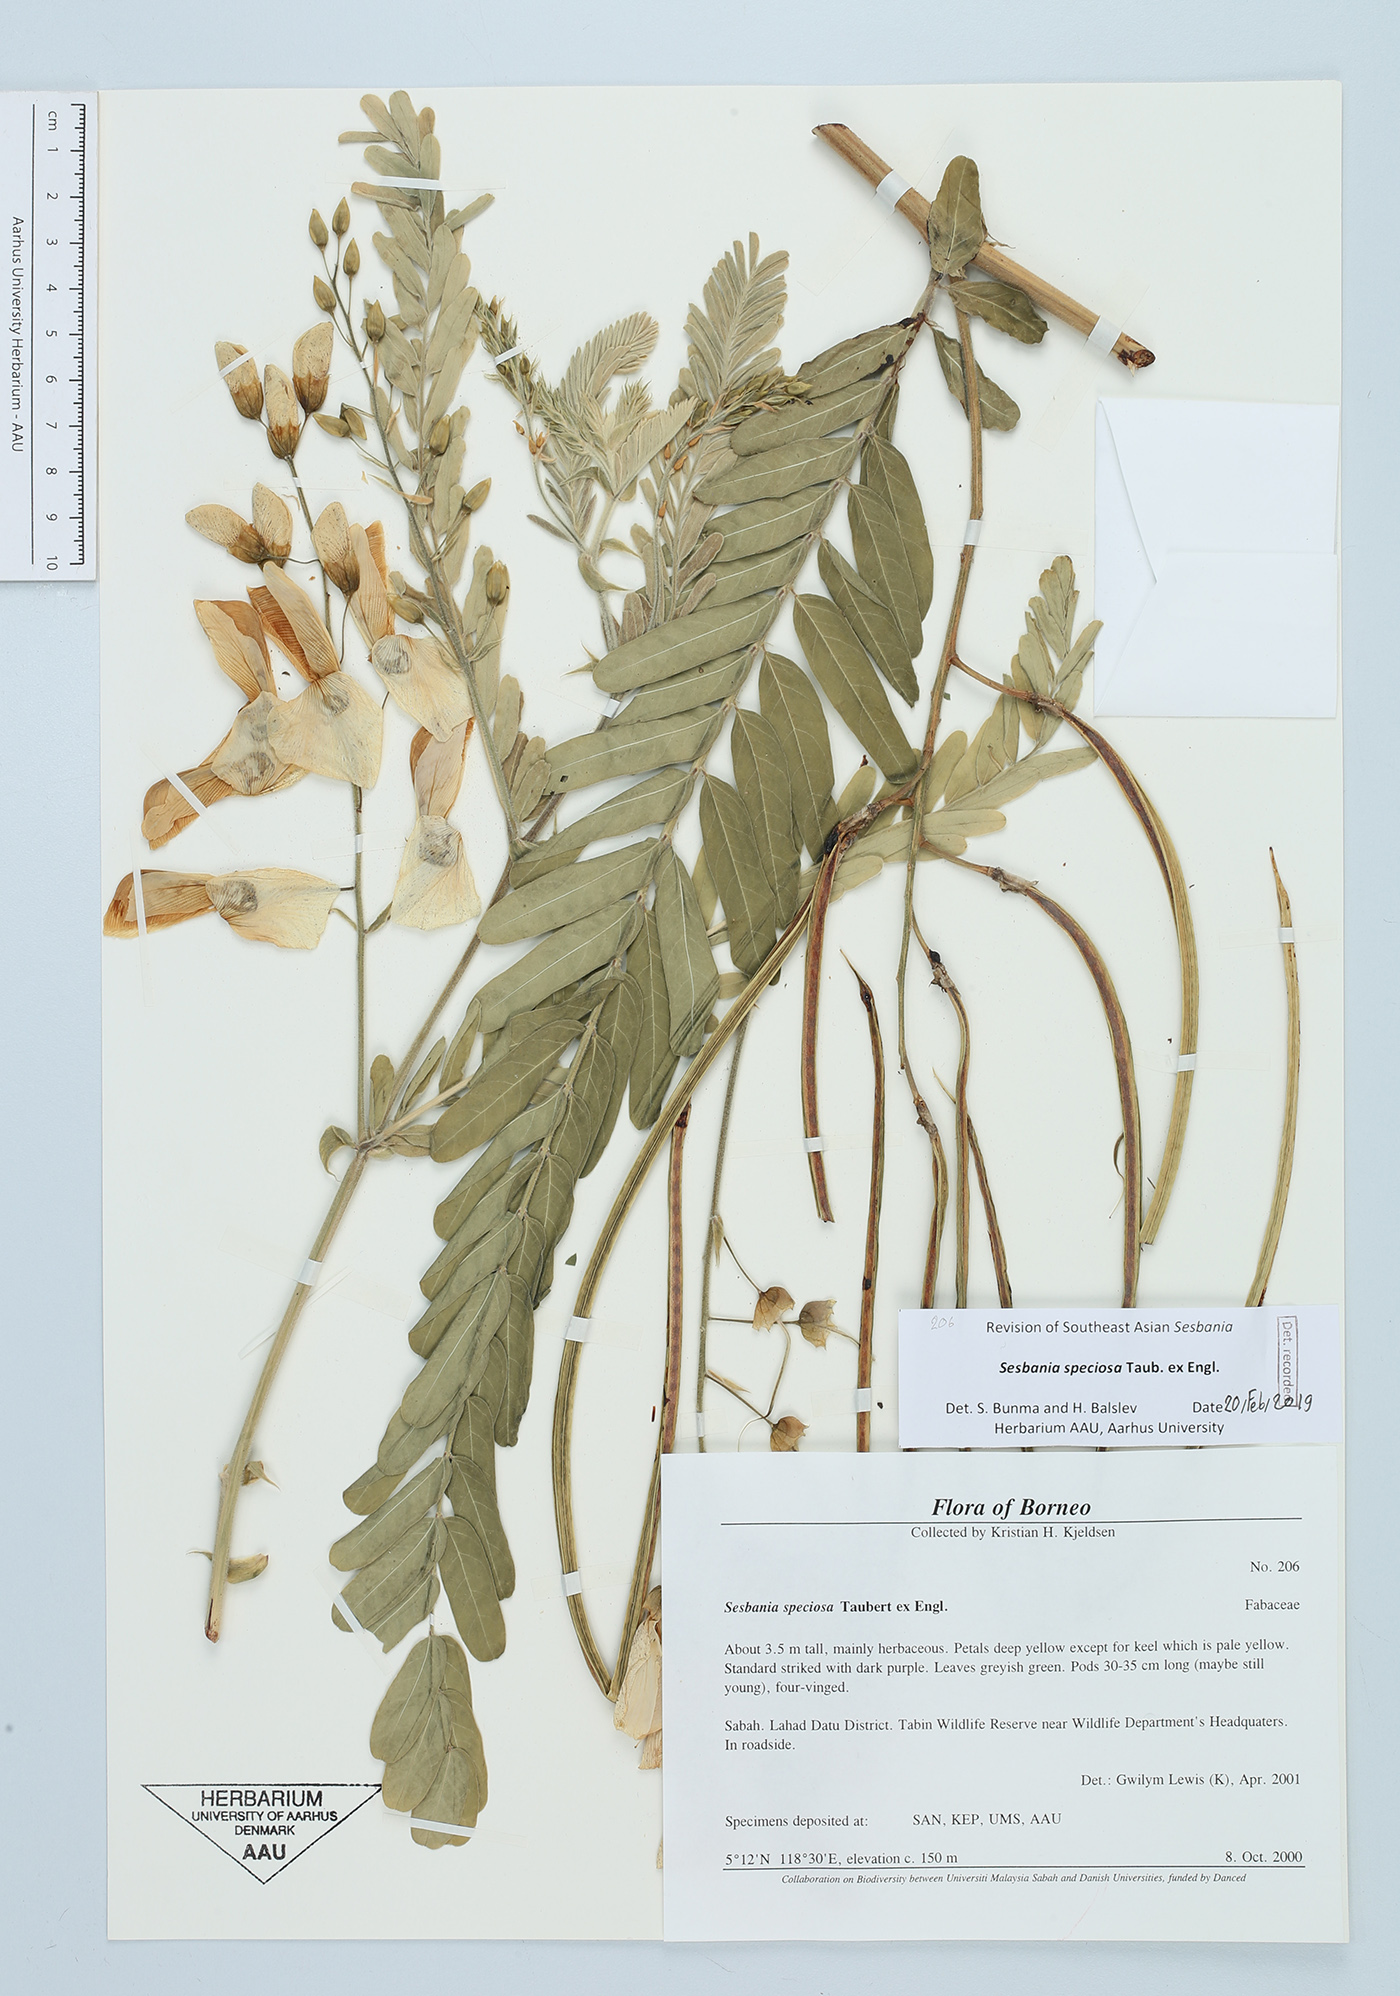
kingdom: Plantae
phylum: Tracheophyta
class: Magnoliopsida
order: Fabales
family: Fabaceae
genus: Sesbania
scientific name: Sesbania speciosa
